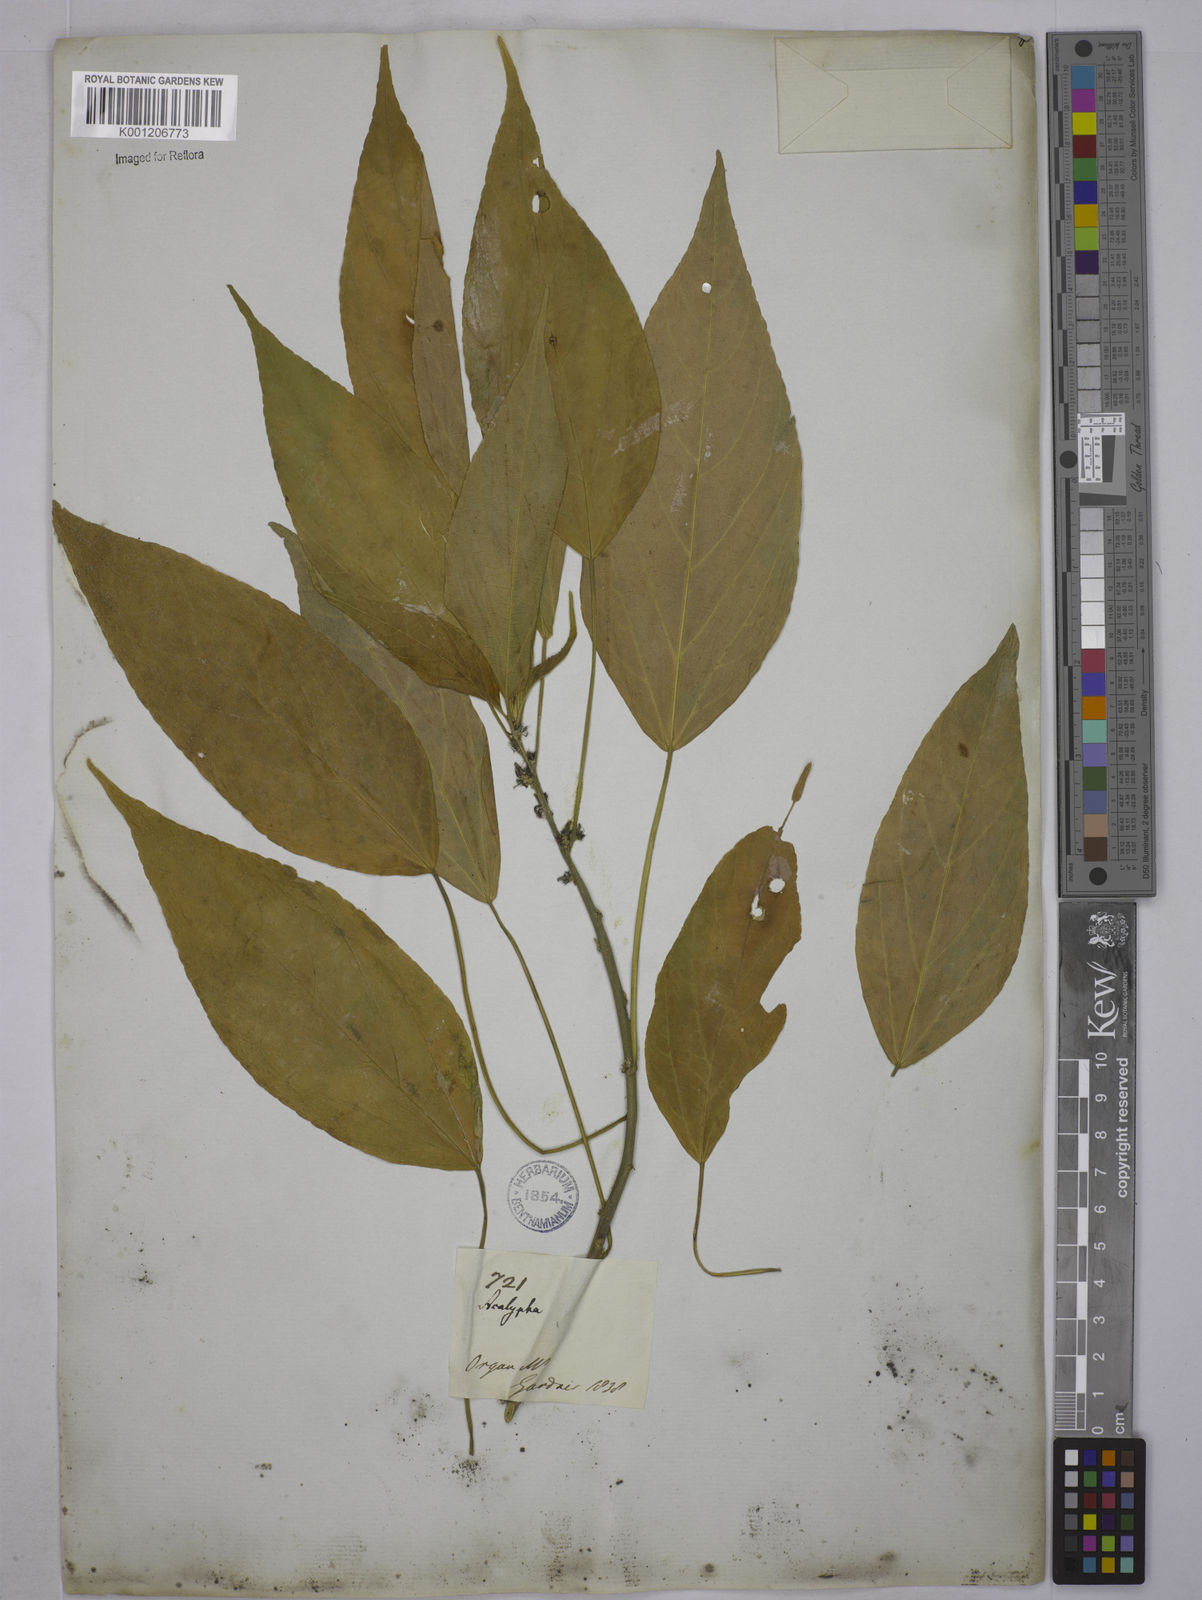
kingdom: Plantae
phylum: Tracheophyta
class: Magnoliopsida
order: Malpighiales
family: Euphorbiaceae
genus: Acalypha
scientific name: Acalypha
